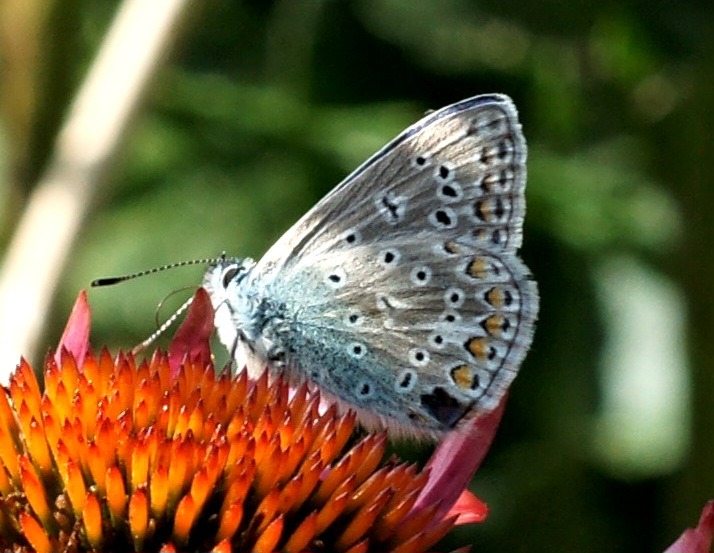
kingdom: Animalia
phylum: Arthropoda
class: Insecta
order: Lepidoptera
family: Lycaenidae
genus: Polyommatus
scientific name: Polyommatus icarus
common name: Almindelig blåfugl
